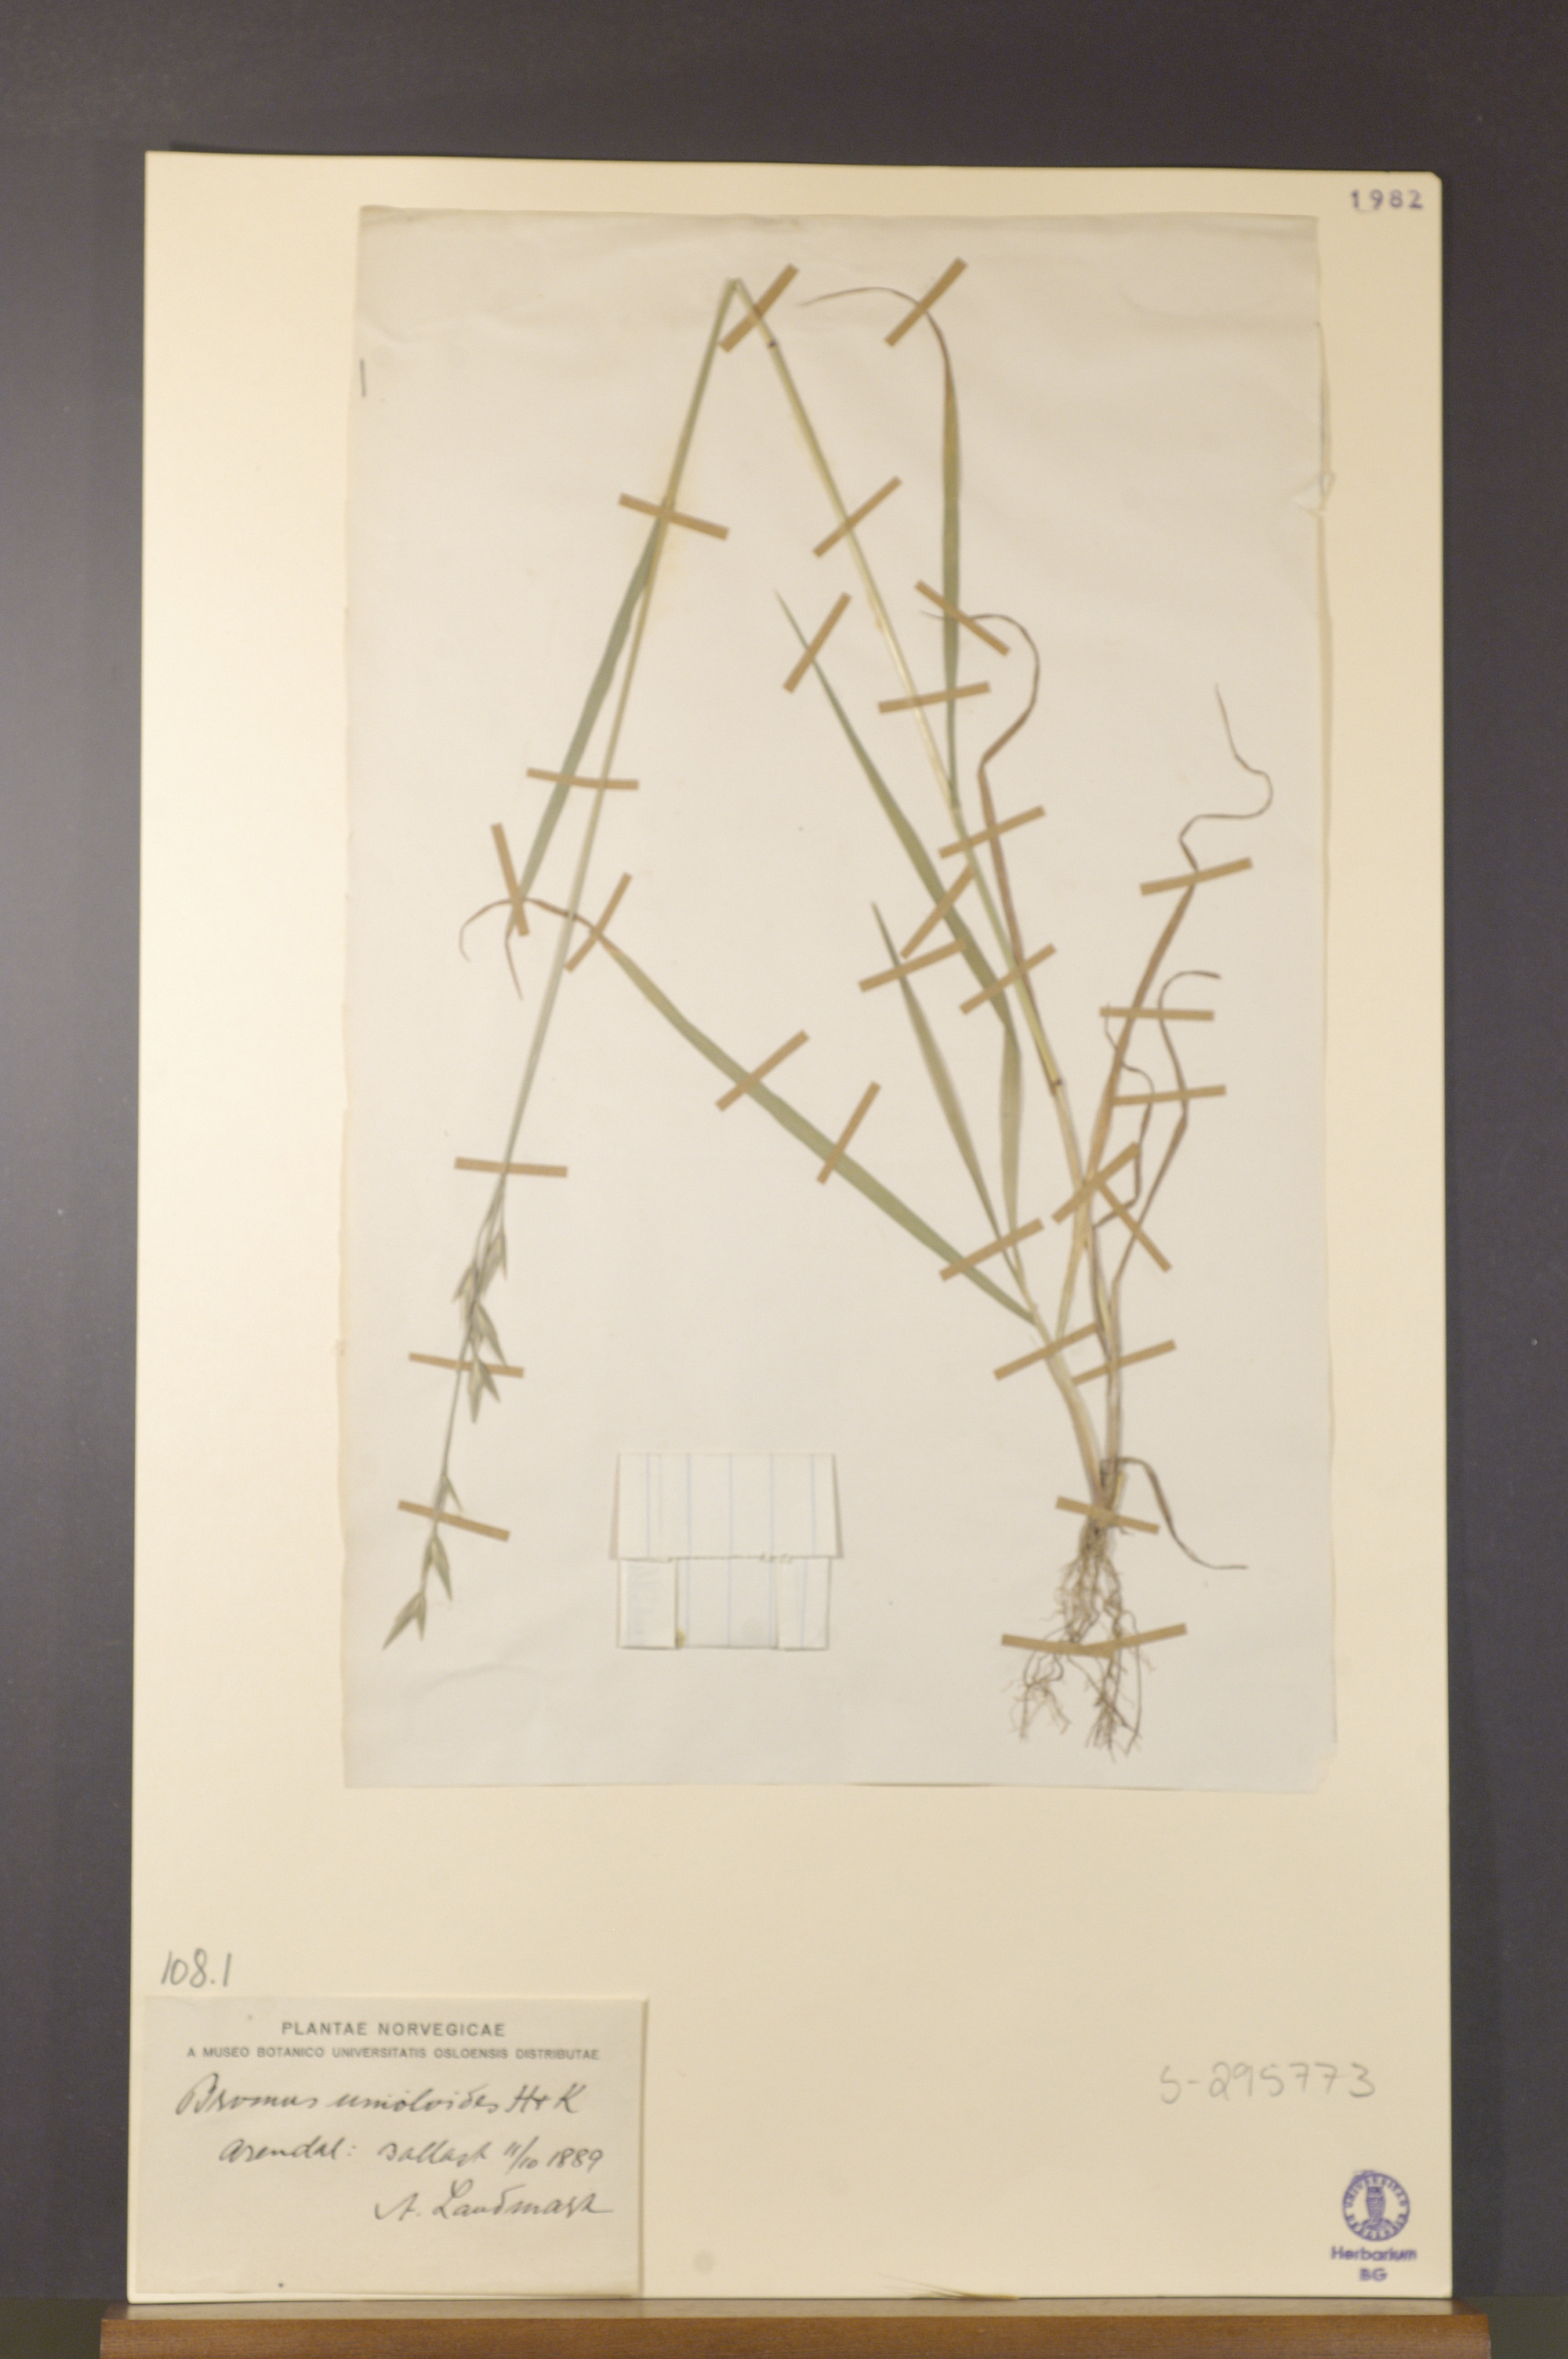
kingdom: Plantae
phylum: Tracheophyta
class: Liliopsida
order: Poales
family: Poaceae
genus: Bromus
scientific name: Bromus catharticus
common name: Rescuegrass
